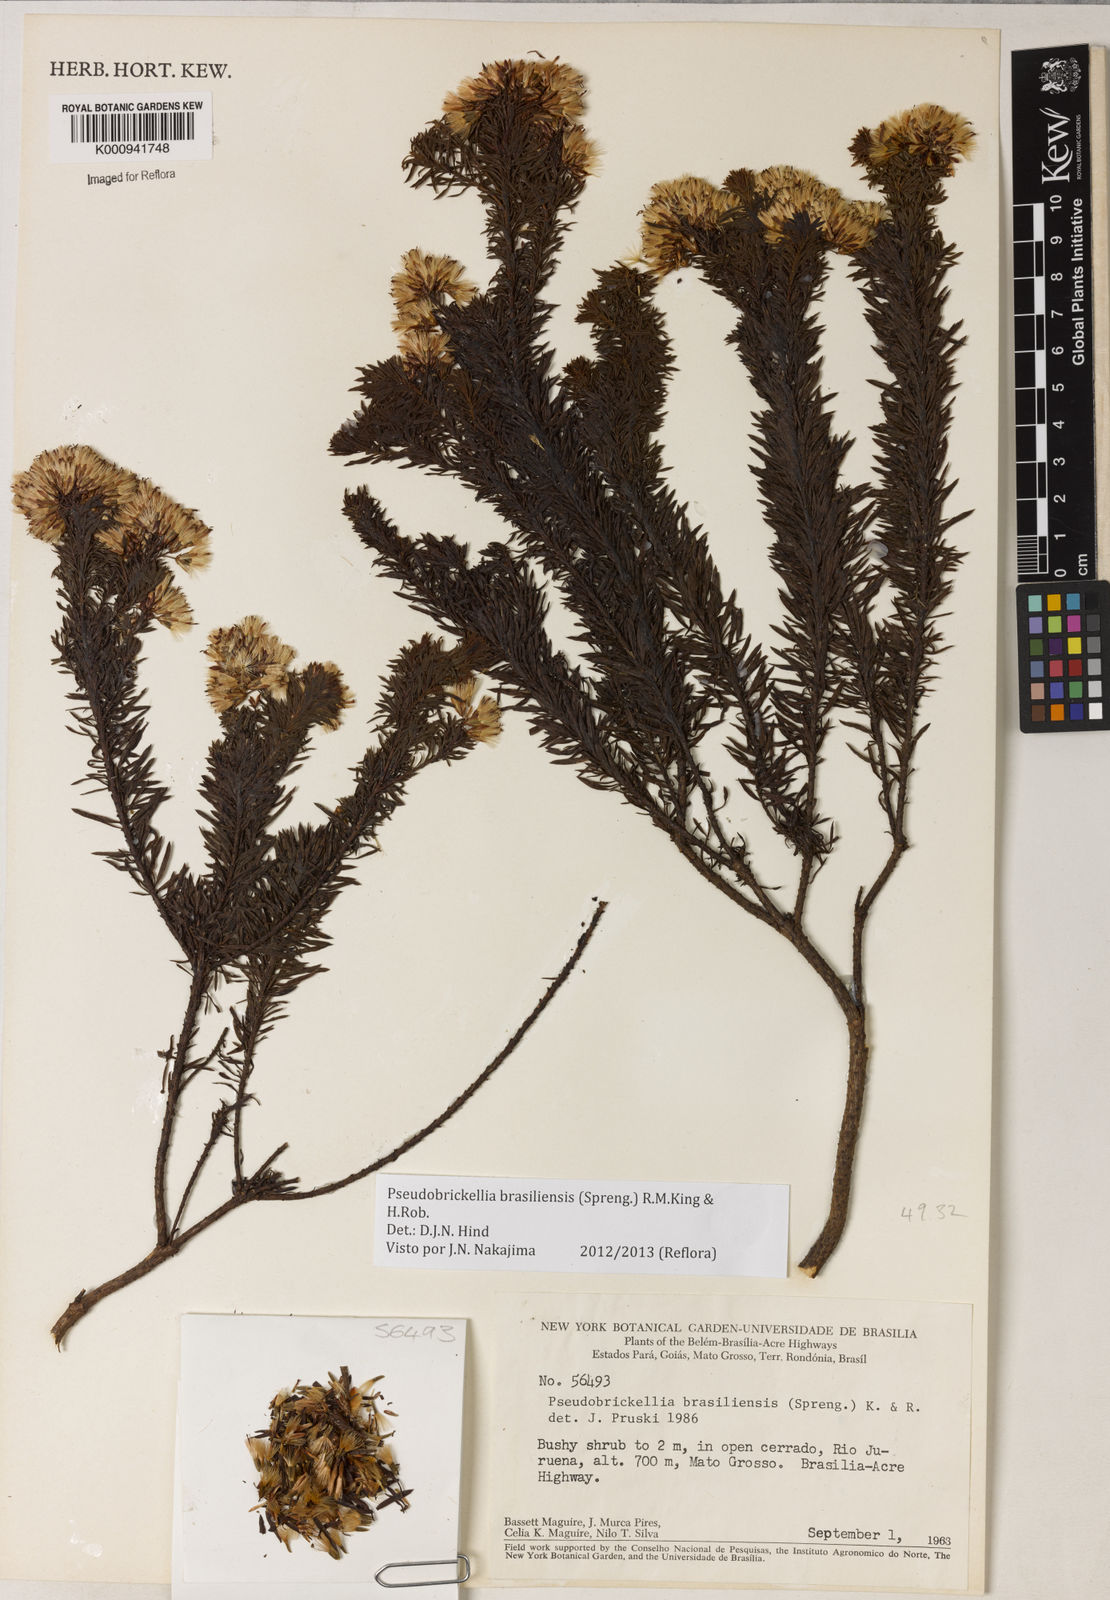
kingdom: Plantae
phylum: Tracheophyta
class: Magnoliopsida
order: Asterales
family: Asteraceae
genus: Pseudobrickellia
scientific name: Pseudobrickellia brasiliensis
